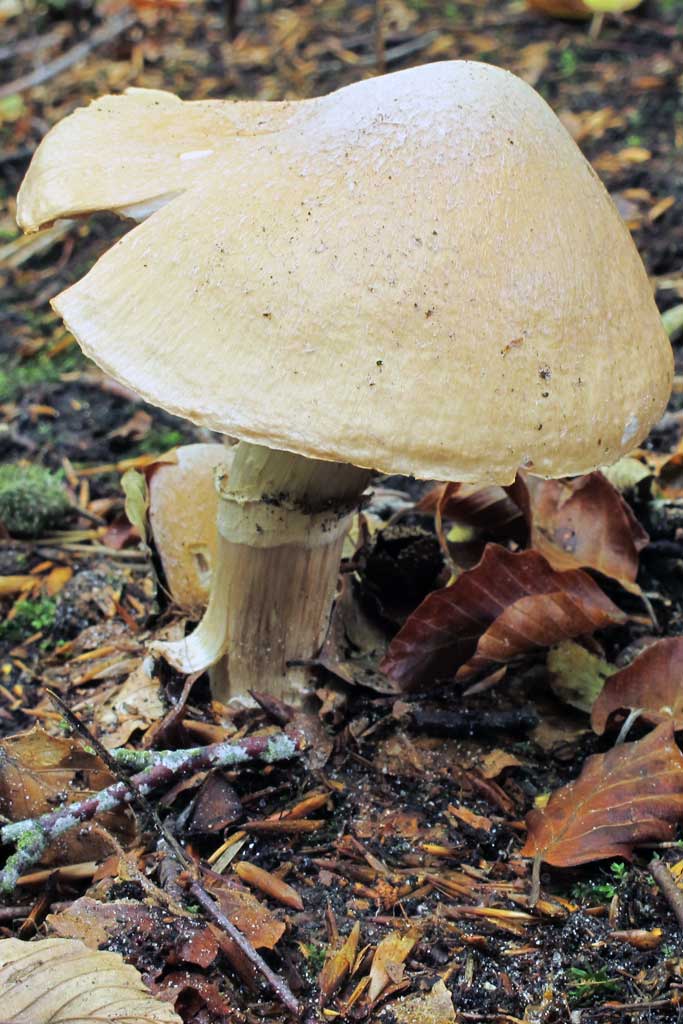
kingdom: Fungi
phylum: Basidiomycota
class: Agaricomycetes
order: Agaricales
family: Cortinariaceae
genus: Cortinarius
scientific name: Cortinarius caperatus
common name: klidhat
